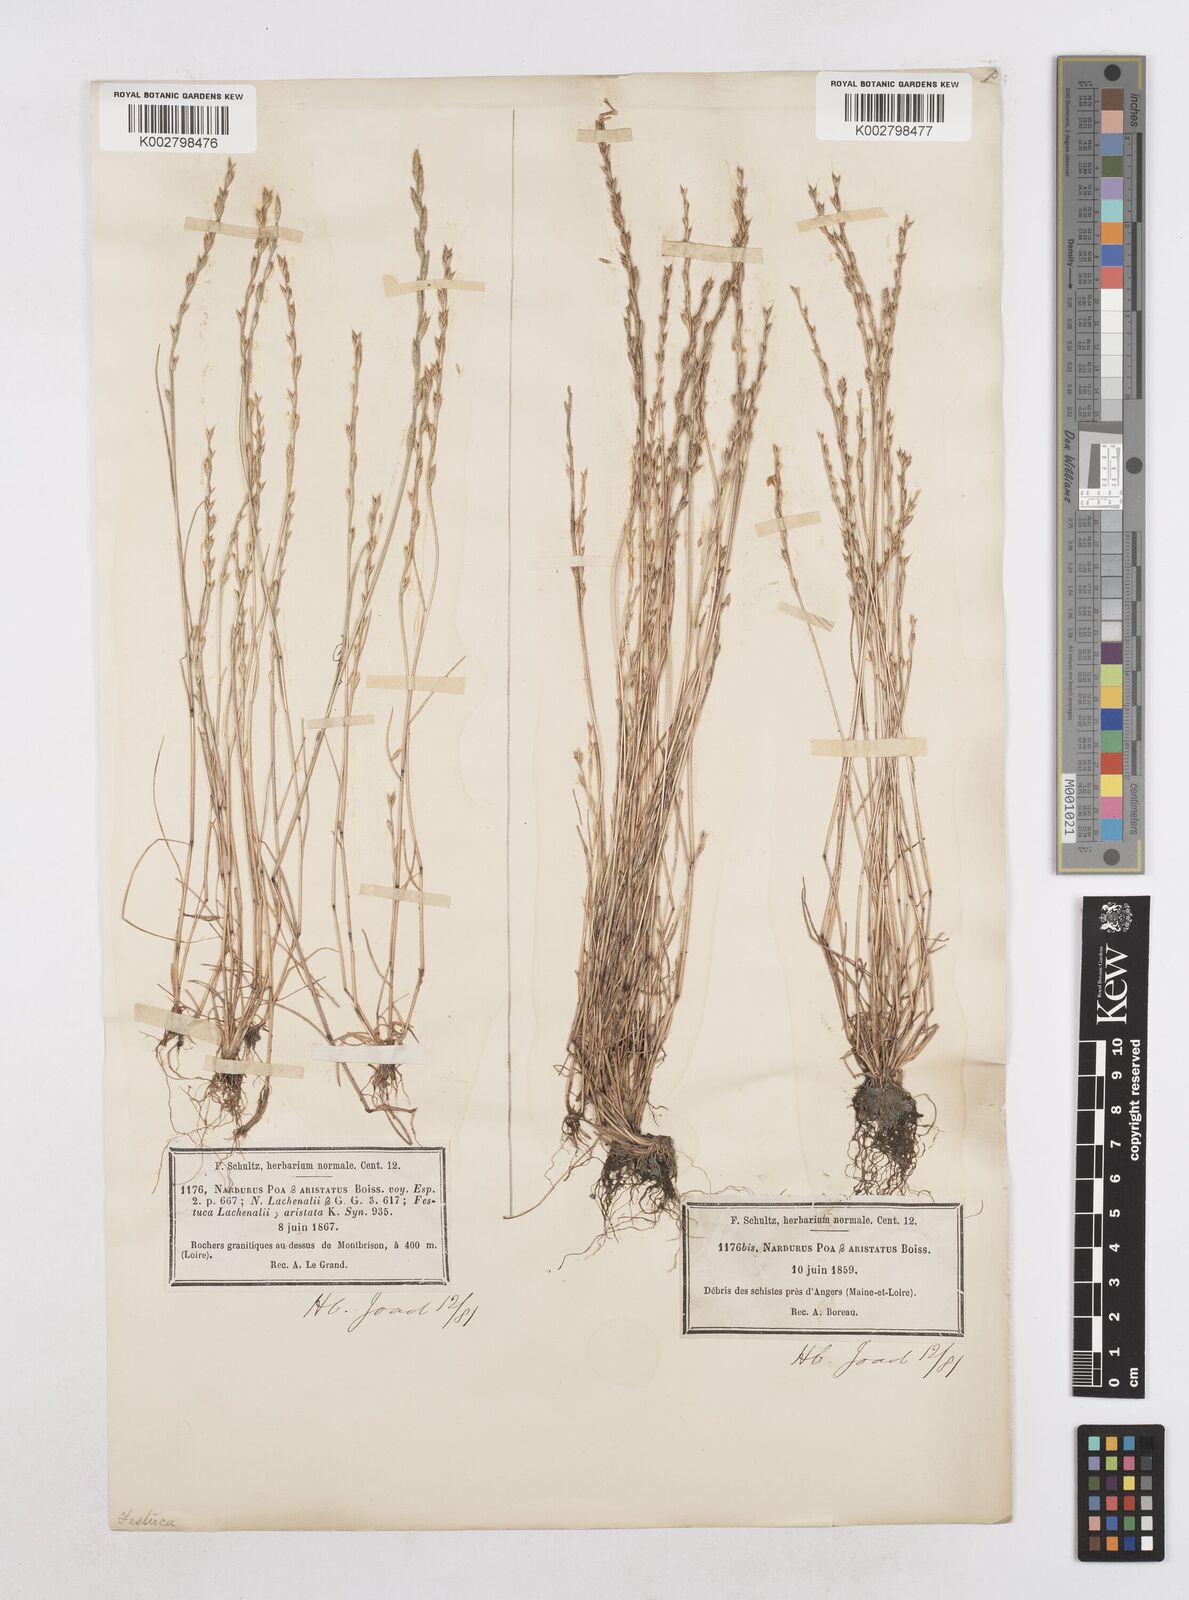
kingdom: Plantae
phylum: Tracheophyta
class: Liliopsida
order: Poales
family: Poaceae
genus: Festuca
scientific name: Festuca lachenalii
